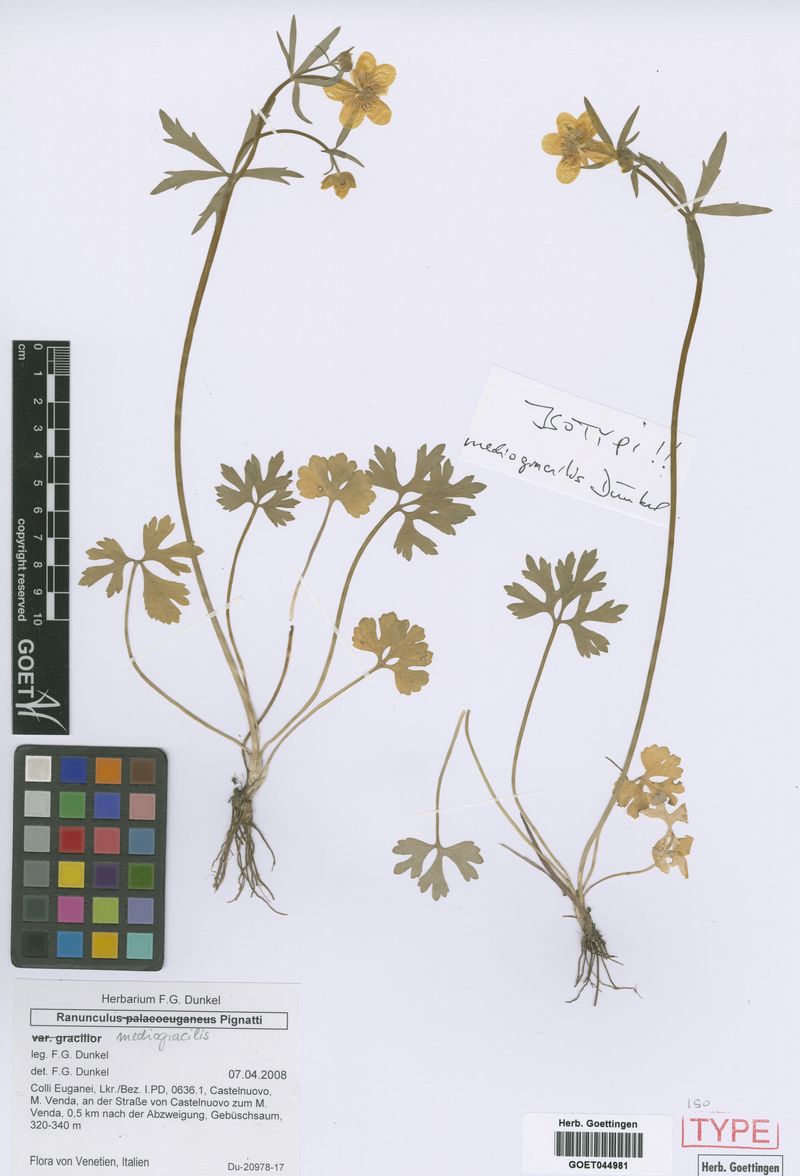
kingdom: Plantae
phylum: Tracheophyta
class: Magnoliopsida
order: Ranunculales
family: Ranunculaceae
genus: Ranunculus
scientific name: Ranunculus mediogracilis
